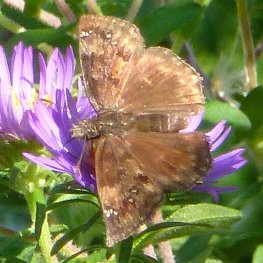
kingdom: Animalia
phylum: Arthropoda
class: Insecta
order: Lepidoptera
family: Hesperiidae
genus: Gesta
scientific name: Gesta
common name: Wild Indigo Duskywing
